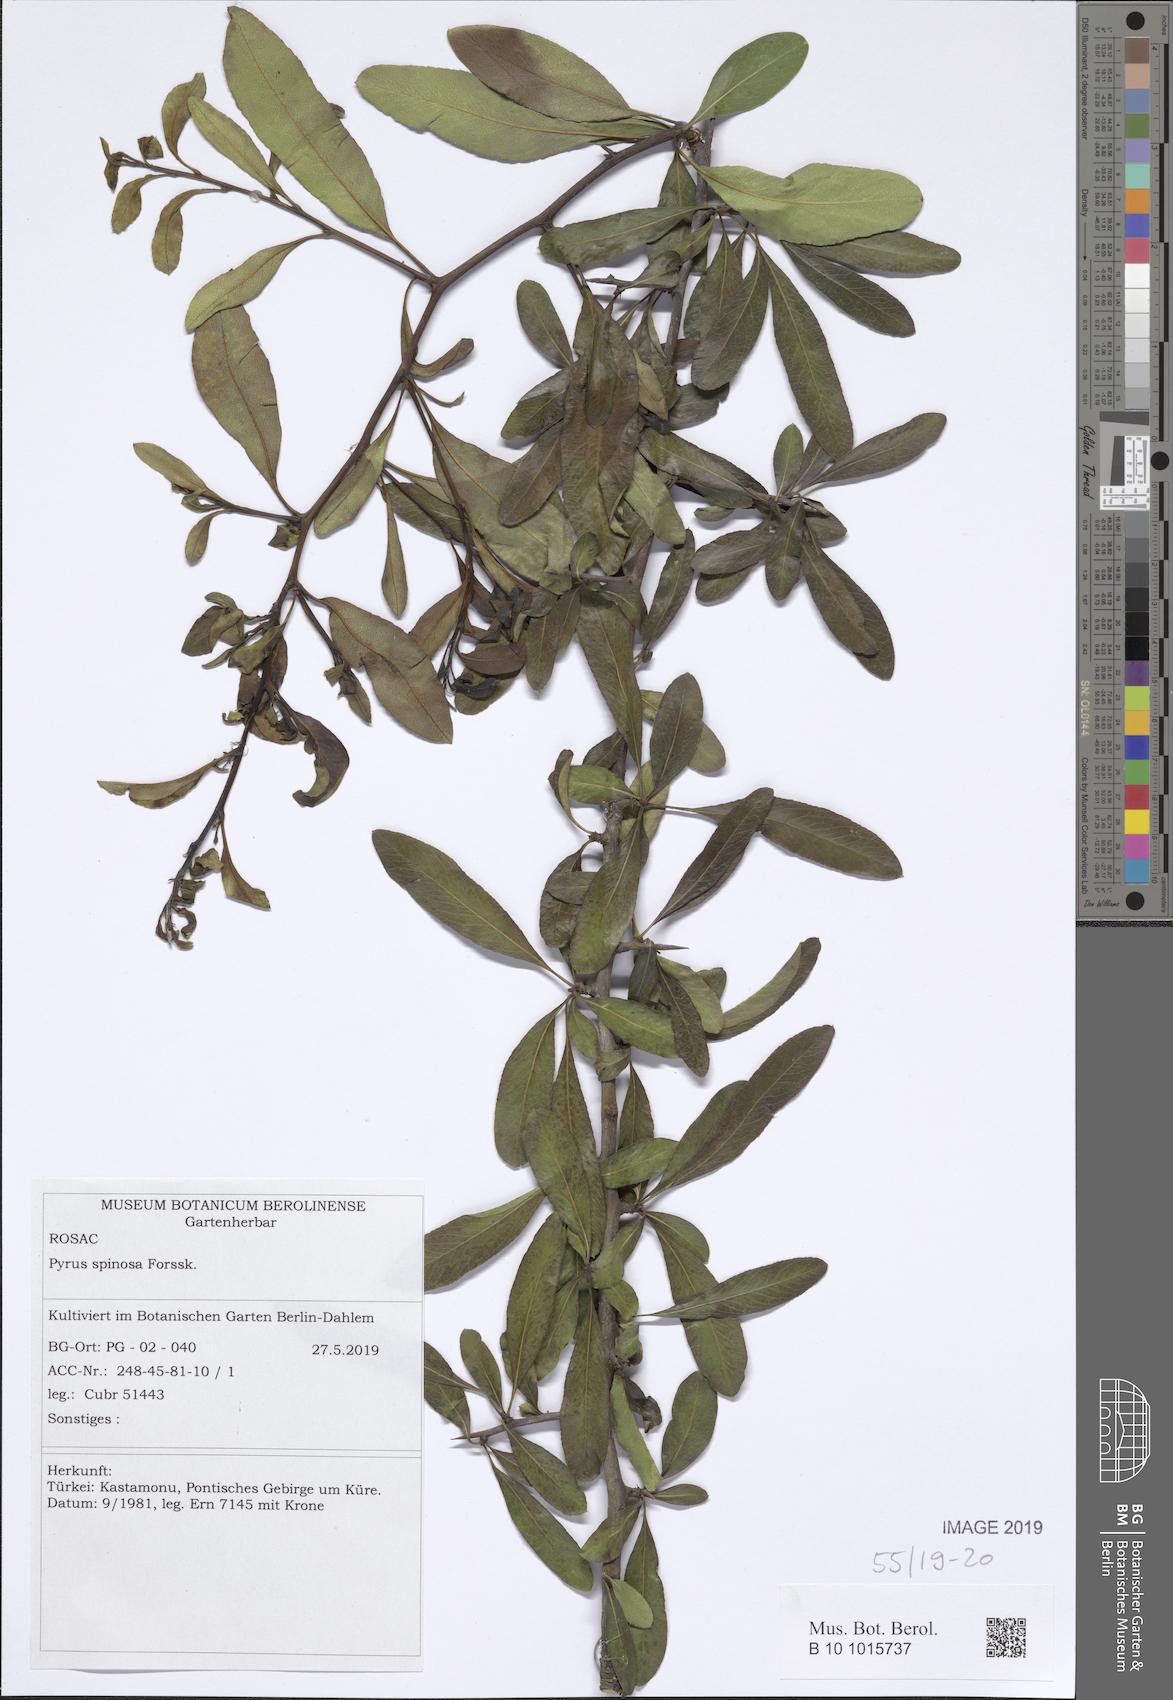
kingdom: Plantae
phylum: Tracheophyta
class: Magnoliopsida
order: Rosales
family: Rosaceae
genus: Pyrus
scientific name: Pyrus spinosa
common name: Almond-leaf pear
